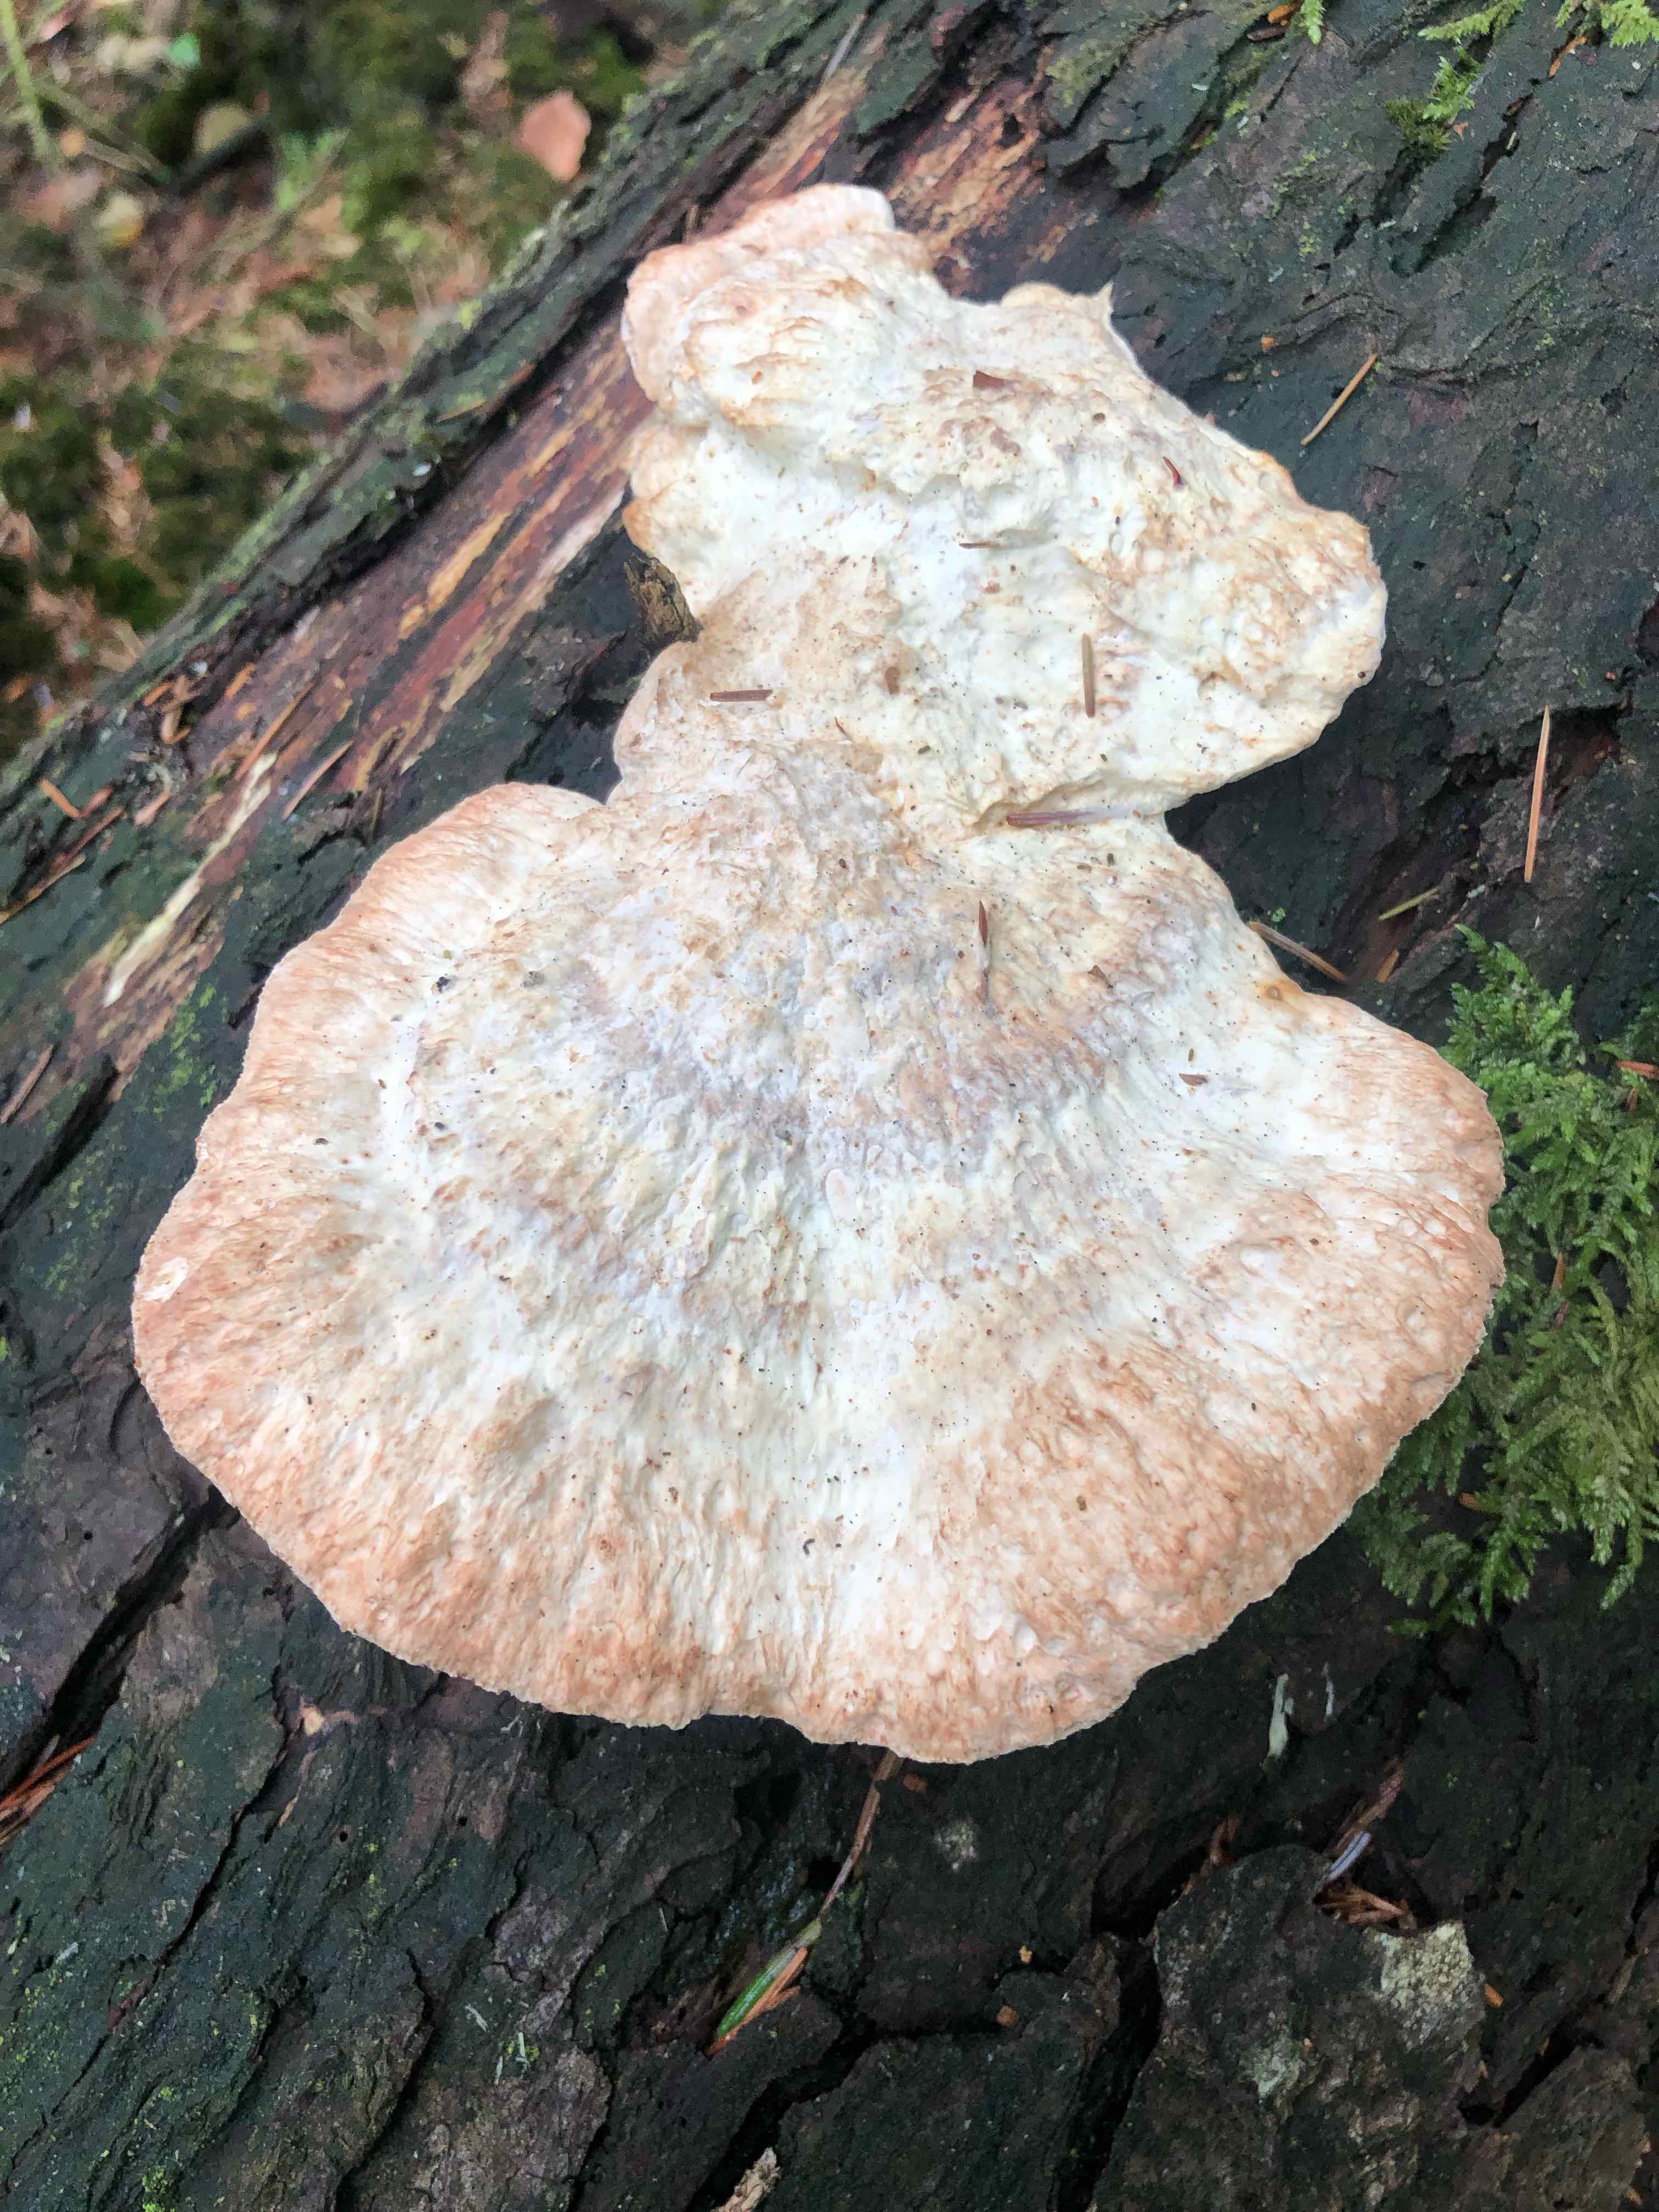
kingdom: Fungi
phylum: Basidiomycota
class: Agaricomycetes
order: Polyporales
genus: Calcipostia
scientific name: Calcipostia guttulata
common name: dråbe-kødporesvamp
